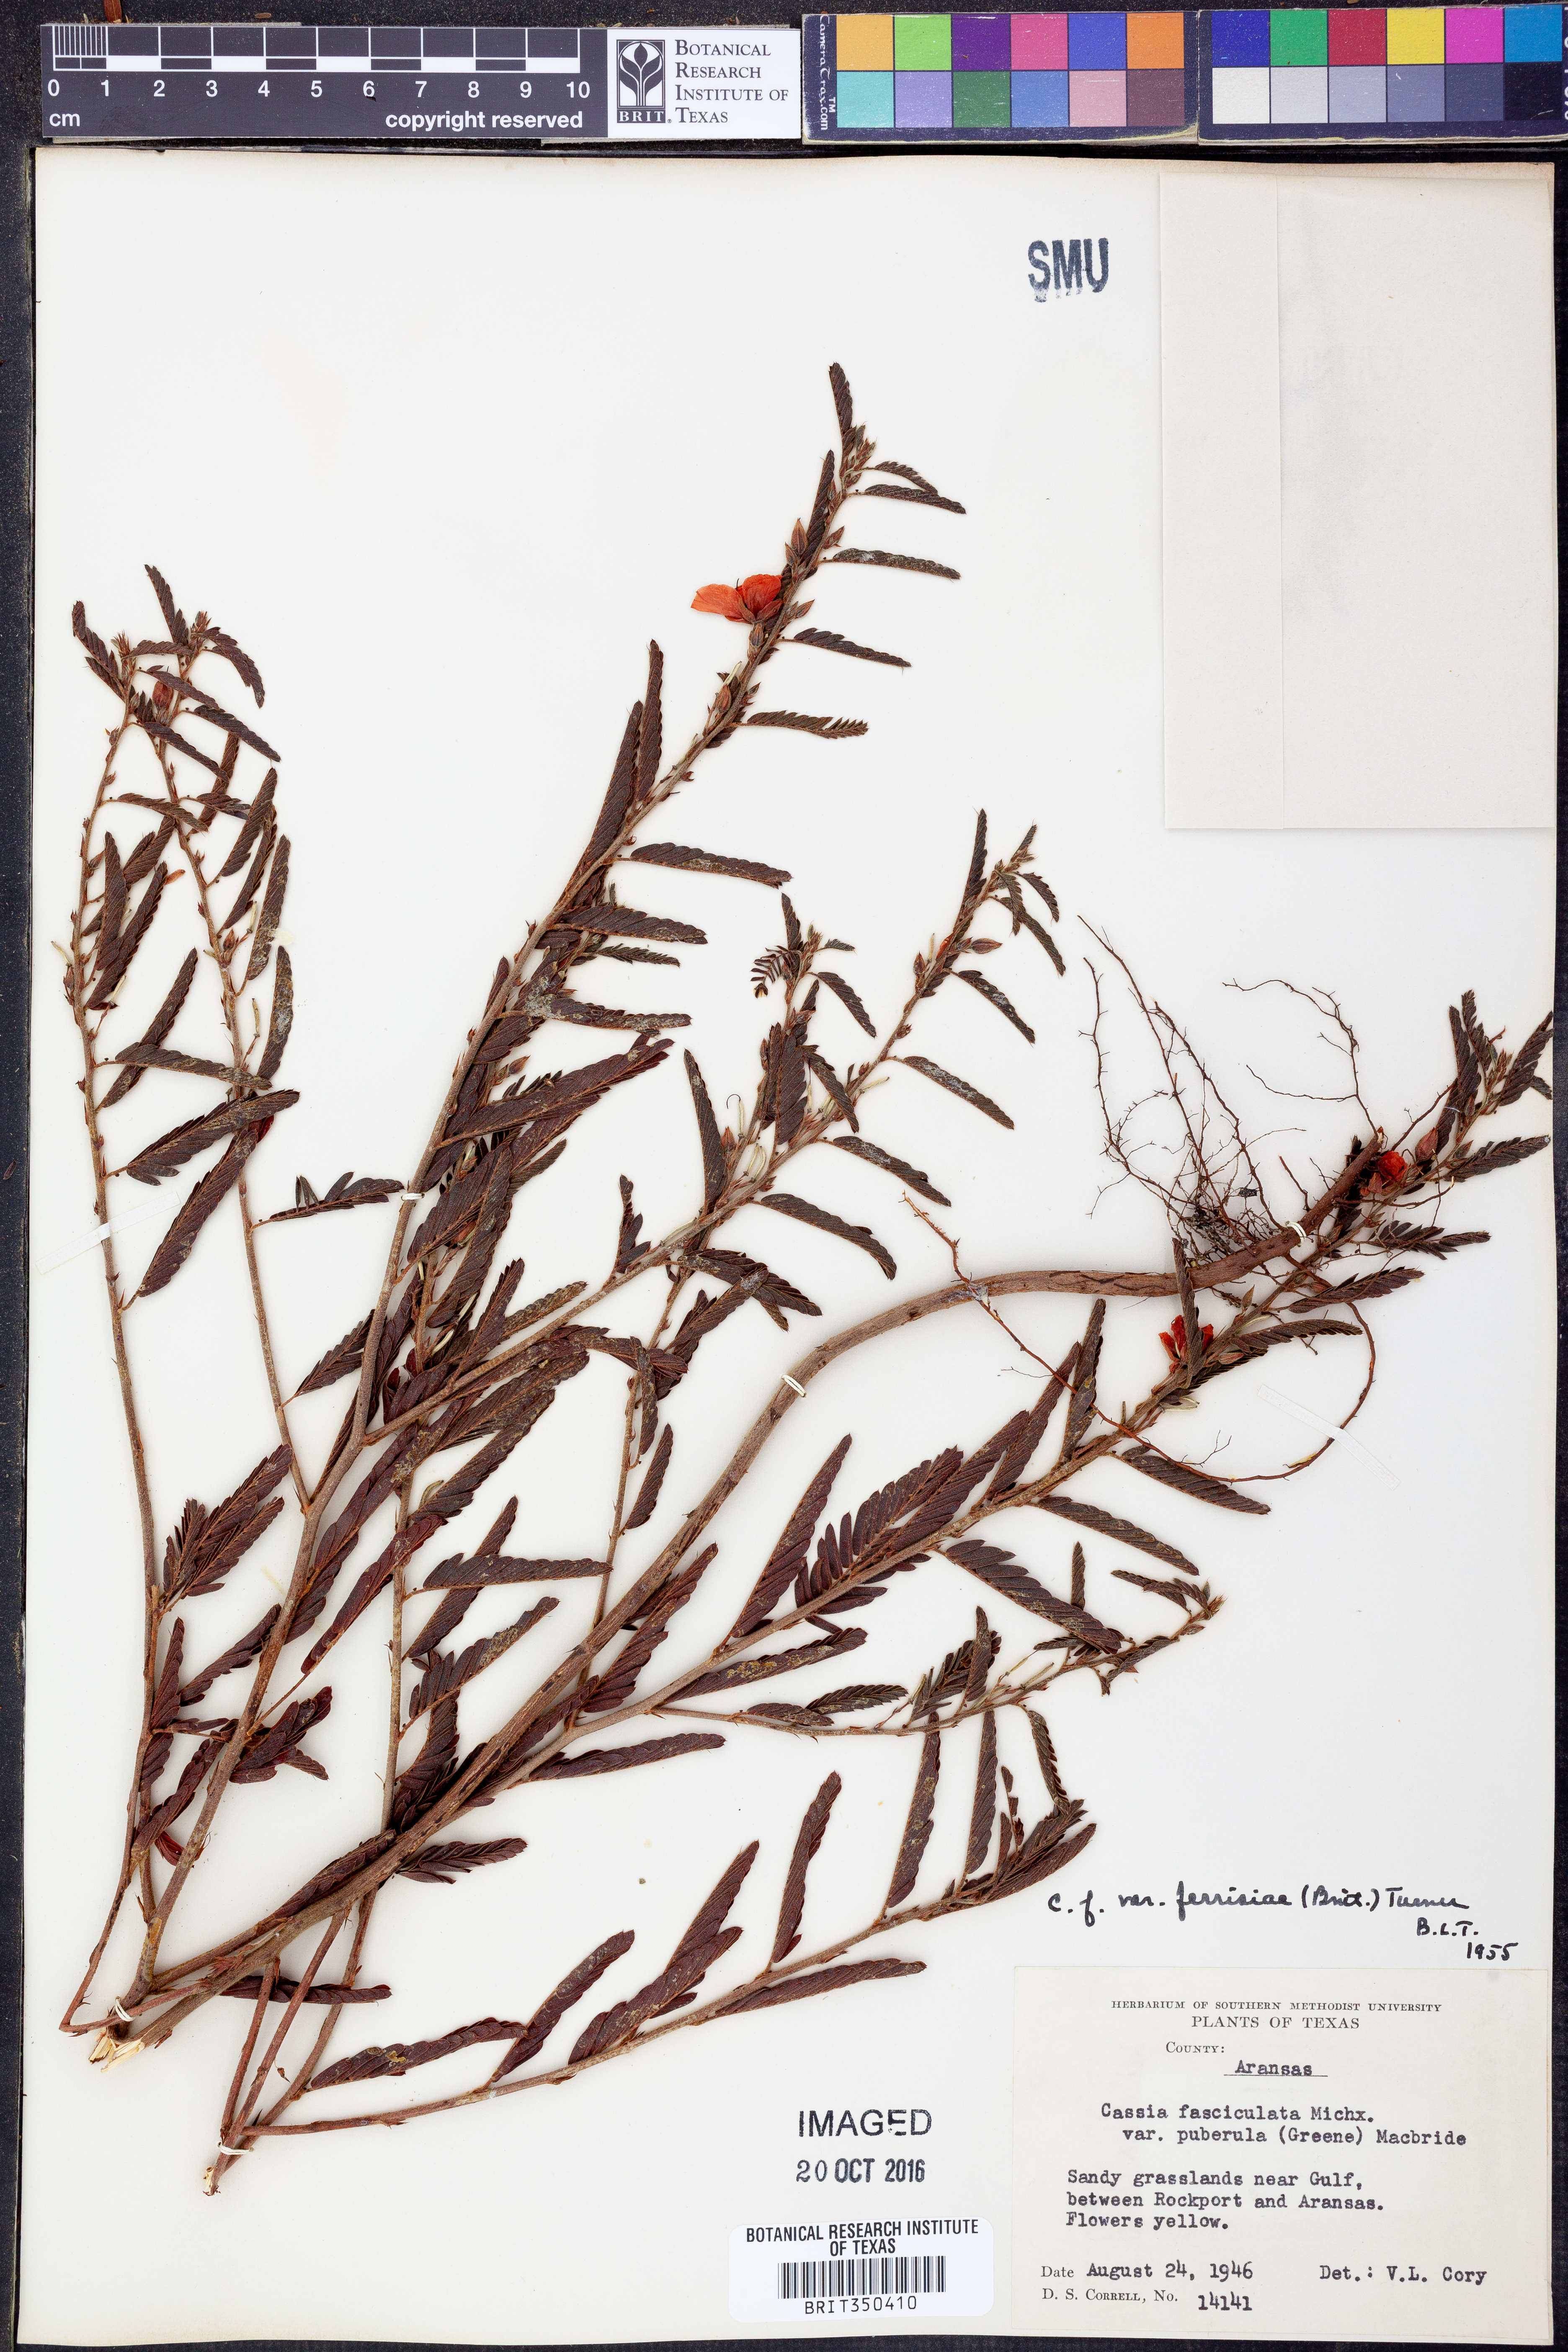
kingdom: Plantae
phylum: Tracheophyta
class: Magnoliopsida
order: Fabales
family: Fabaceae
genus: Chamaecrista
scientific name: Chamaecrista fasciculata
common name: Golden cassia
